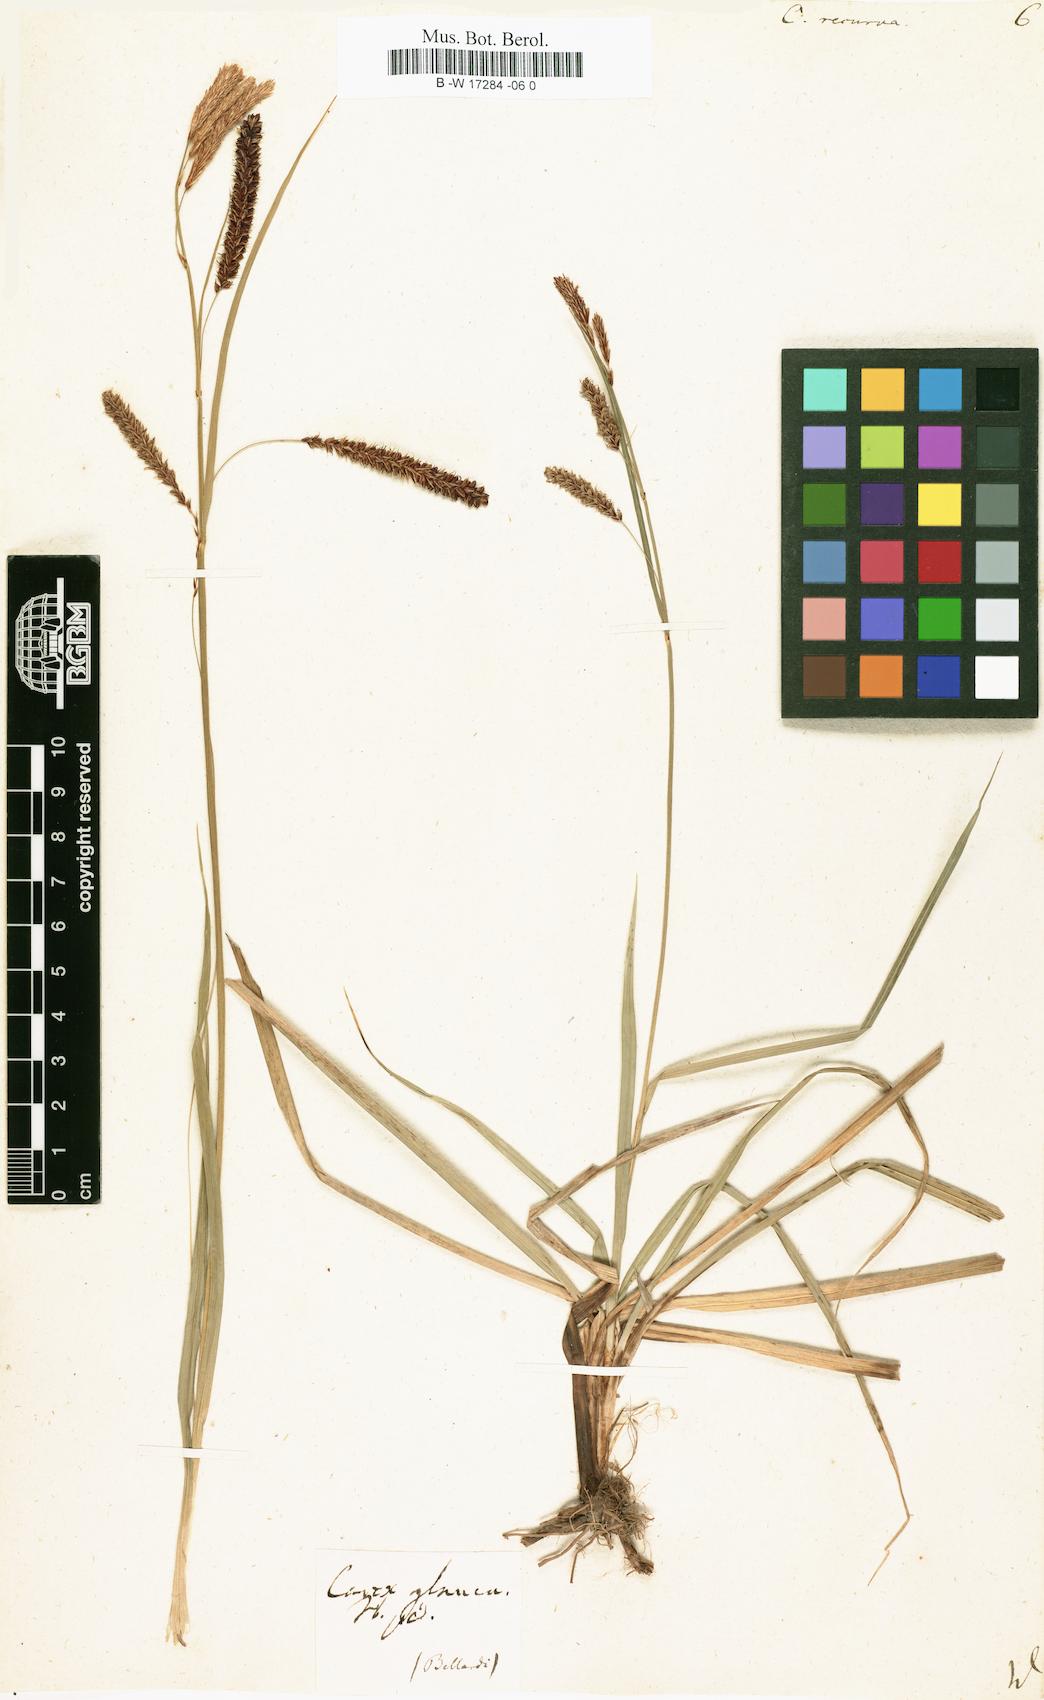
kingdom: Plantae
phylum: Tracheophyta
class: Liliopsida
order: Poales
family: Cyperaceae
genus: Carex
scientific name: Carex
